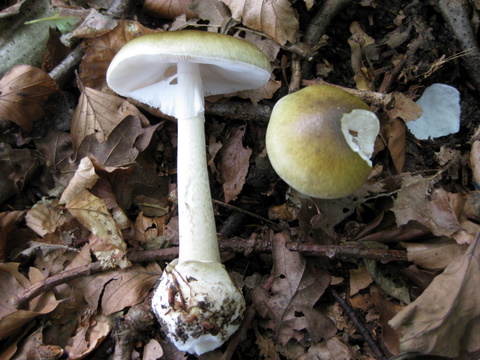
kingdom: Fungi
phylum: Basidiomycota
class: Agaricomycetes
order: Agaricales
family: Amanitaceae
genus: Amanita
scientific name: Amanita phalloides
